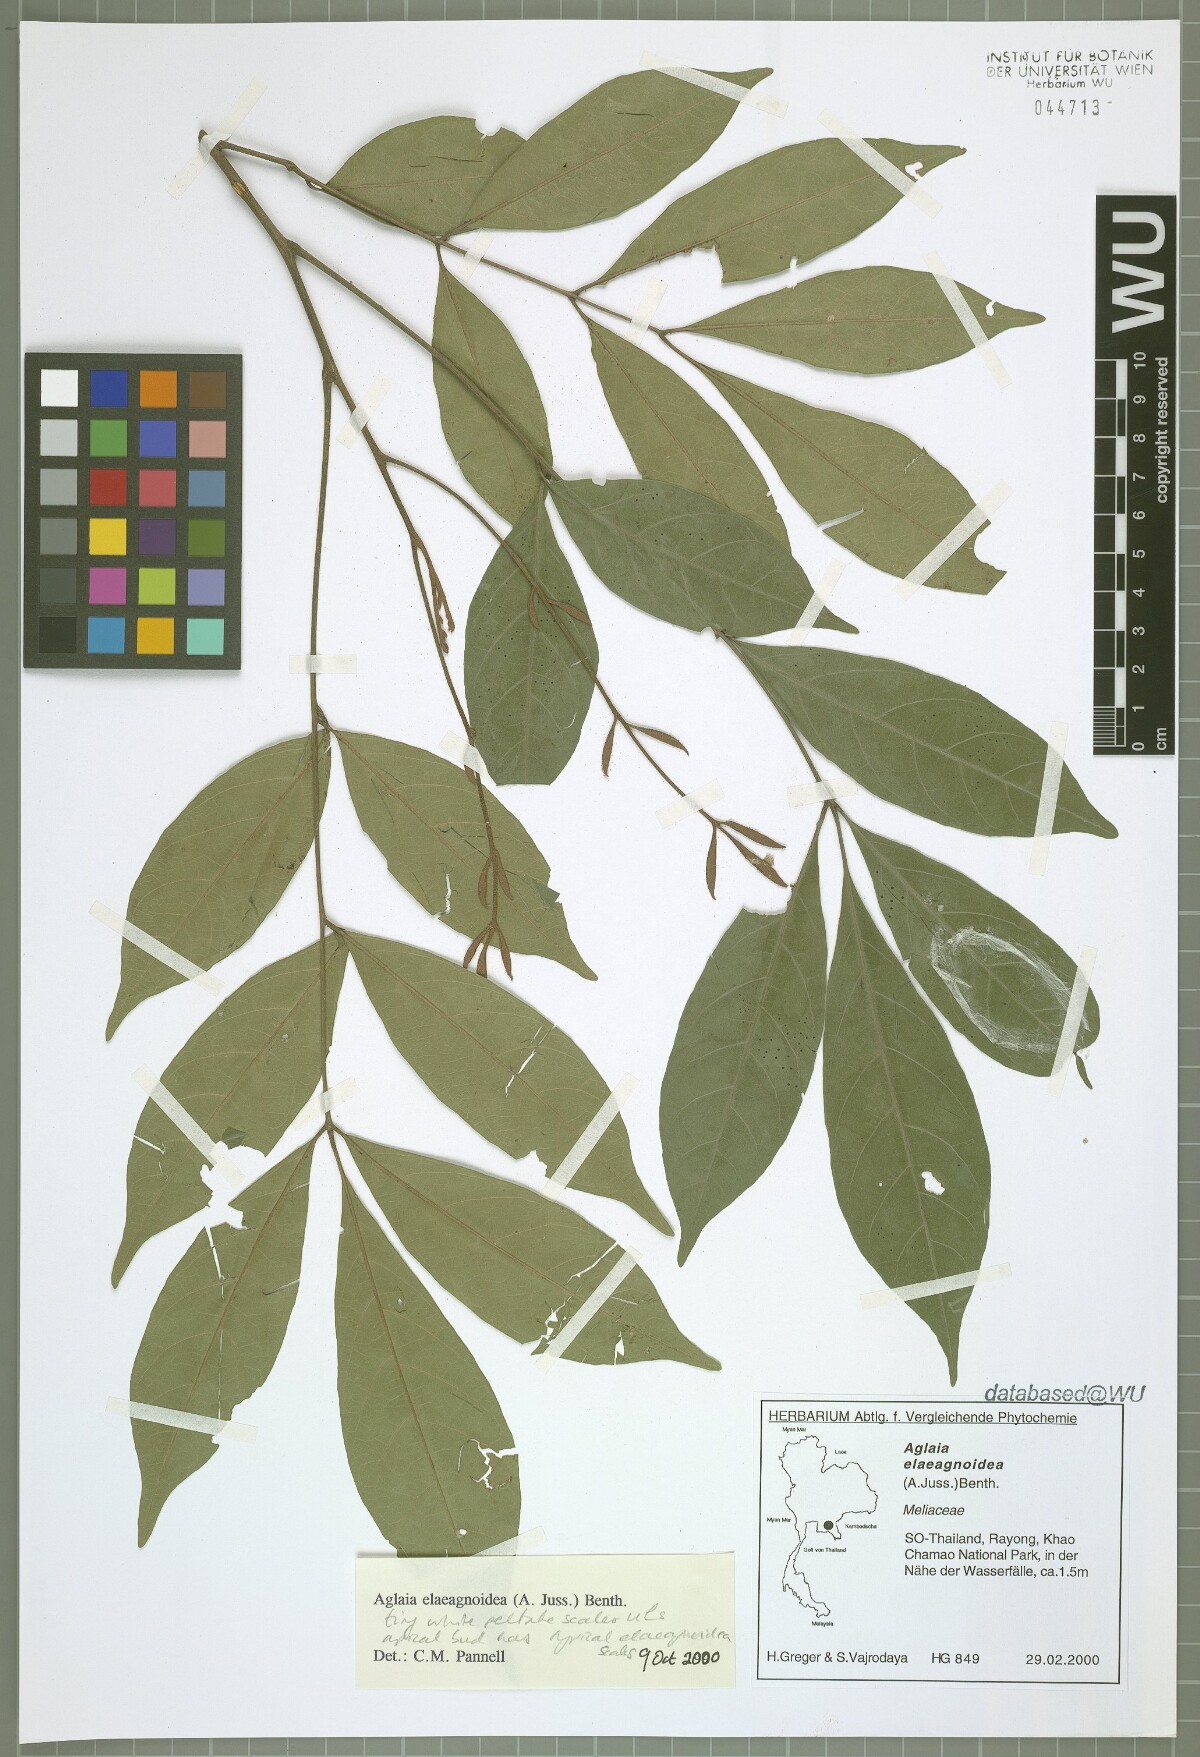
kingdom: Plantae
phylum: Tracheophyta
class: Magnoliopsida
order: Sapindales
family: Meliaceae
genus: Aglaia
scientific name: Aglaia elaeagnoidea
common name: Droopyleaf
